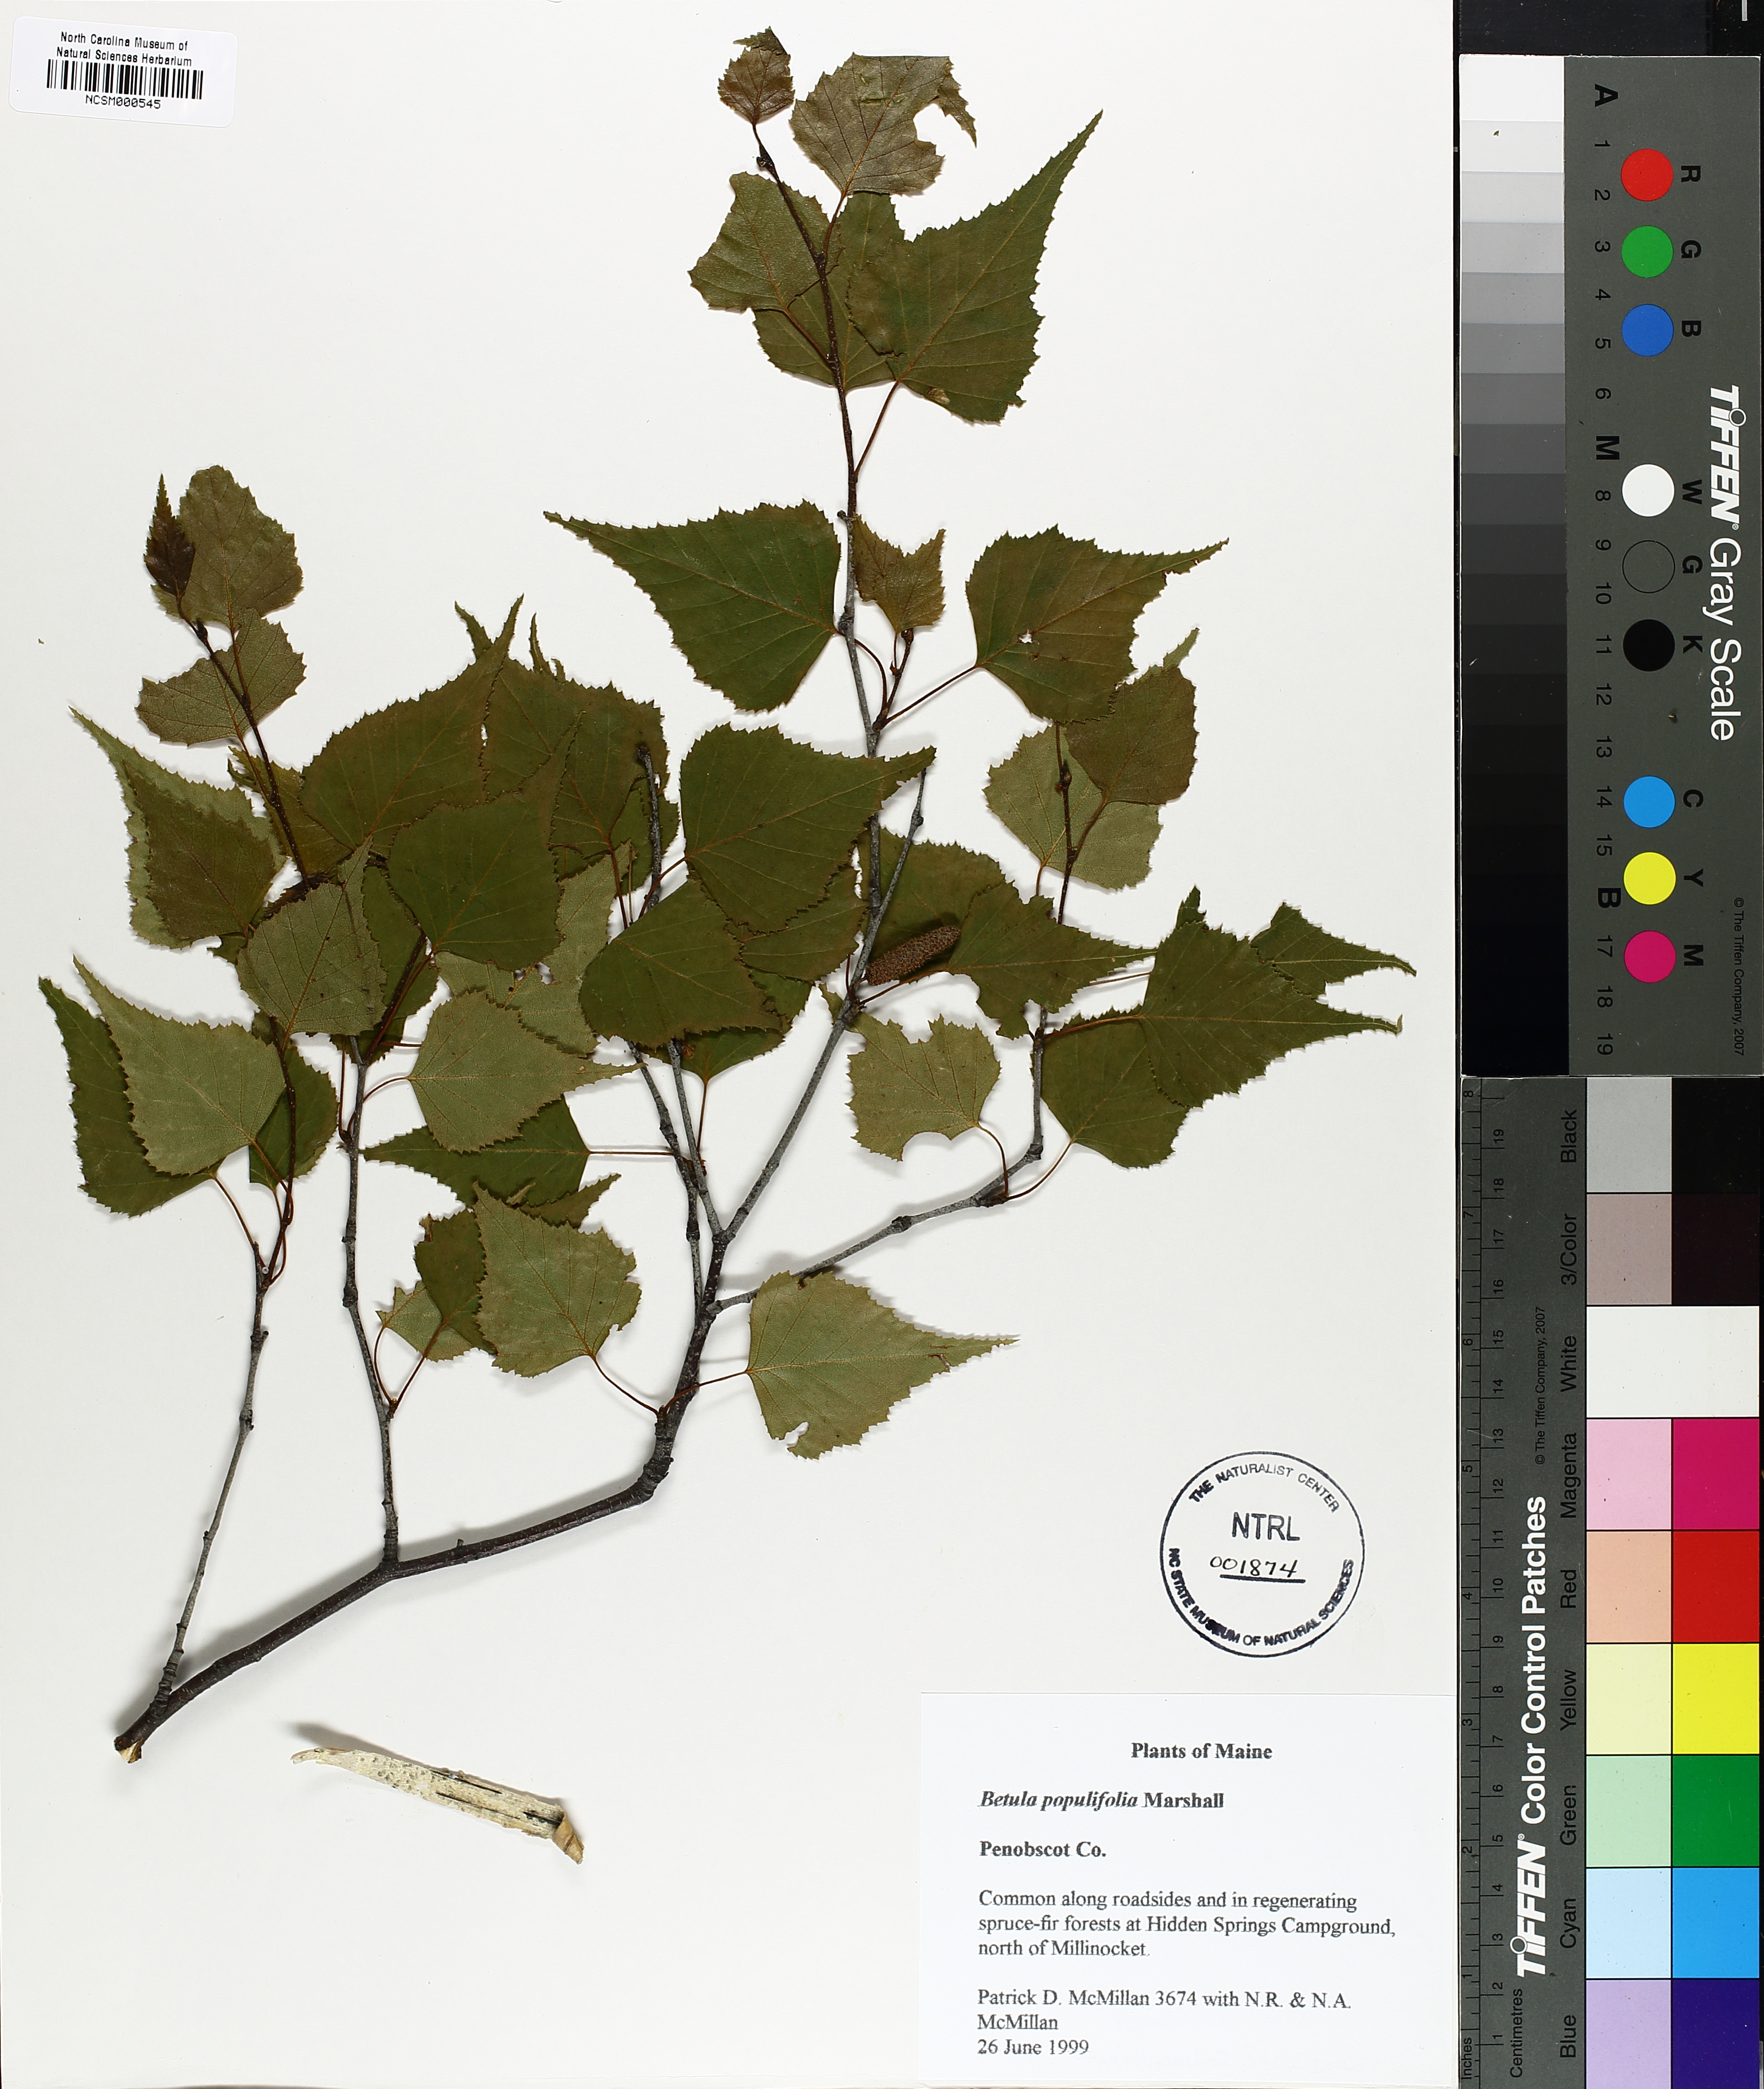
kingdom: Plantae
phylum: Tracheophyta
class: Magnoliopsida
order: Fagales
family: Betulaceae
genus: Betula
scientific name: Betula populifolia
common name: Fire birch
